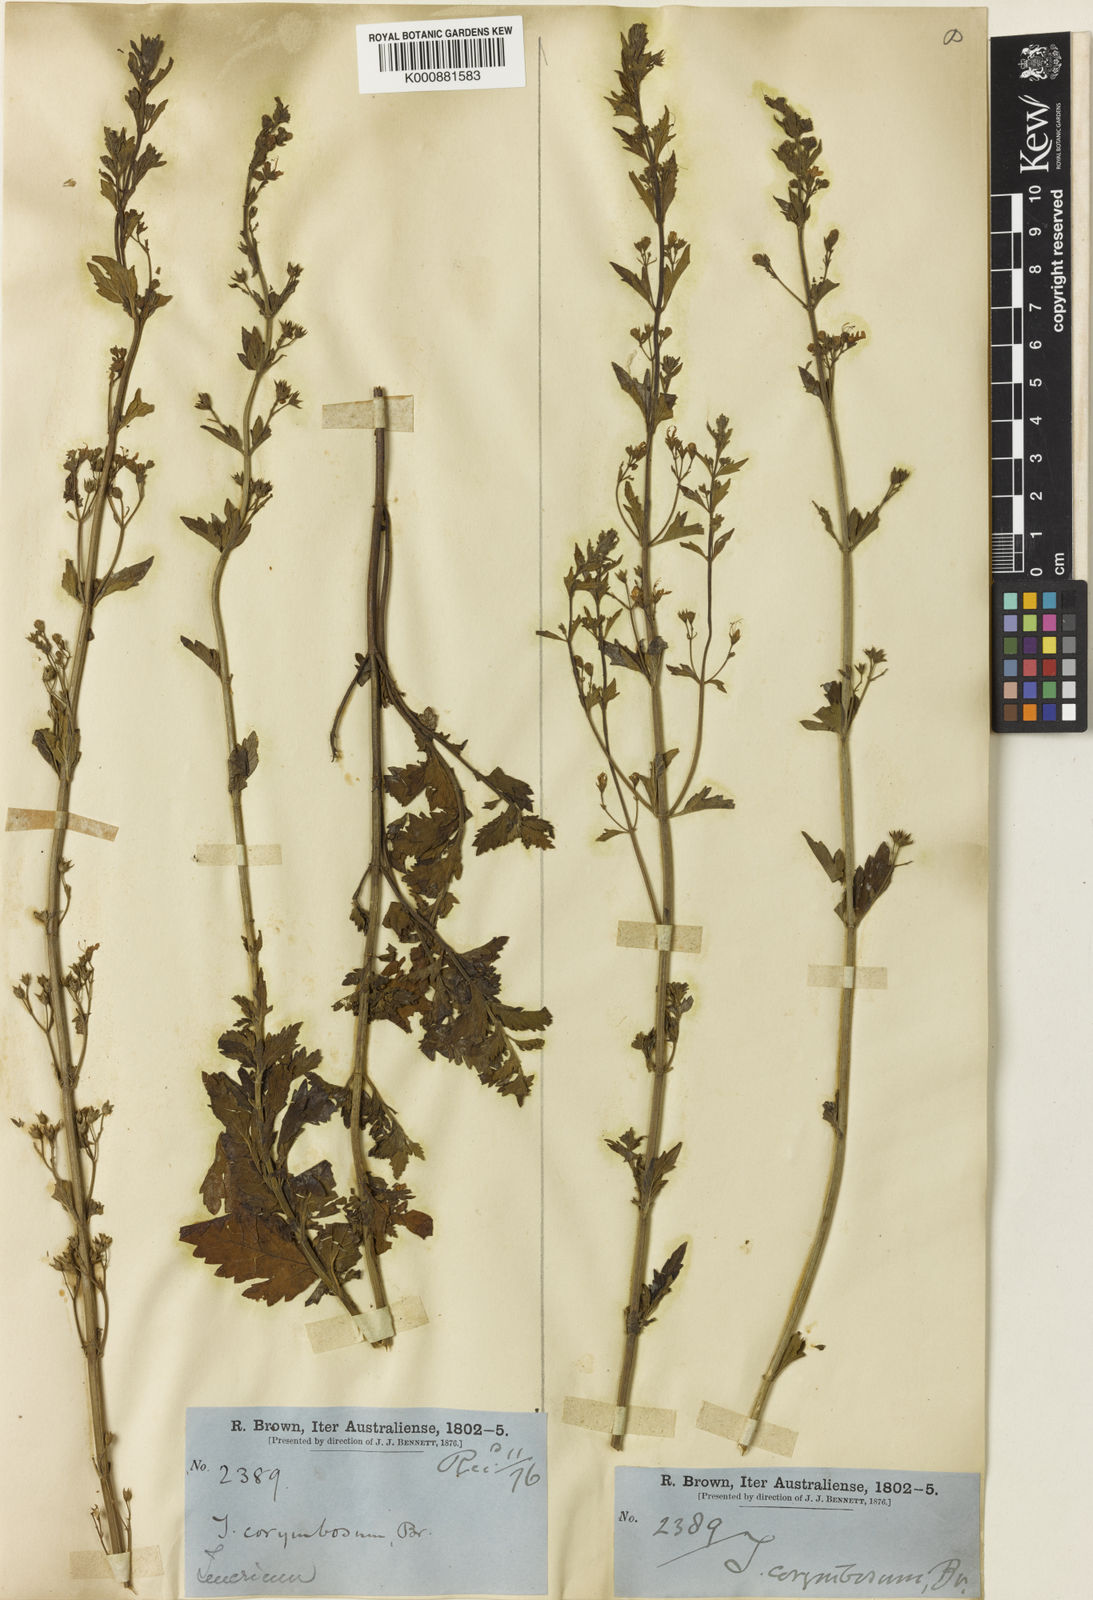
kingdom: Plantae
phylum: Tracheophyta
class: Magnoliopsida
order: Lamiales
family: Lamiaceae
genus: Teucrium
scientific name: Teucrium corymbosum
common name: Forest germander
